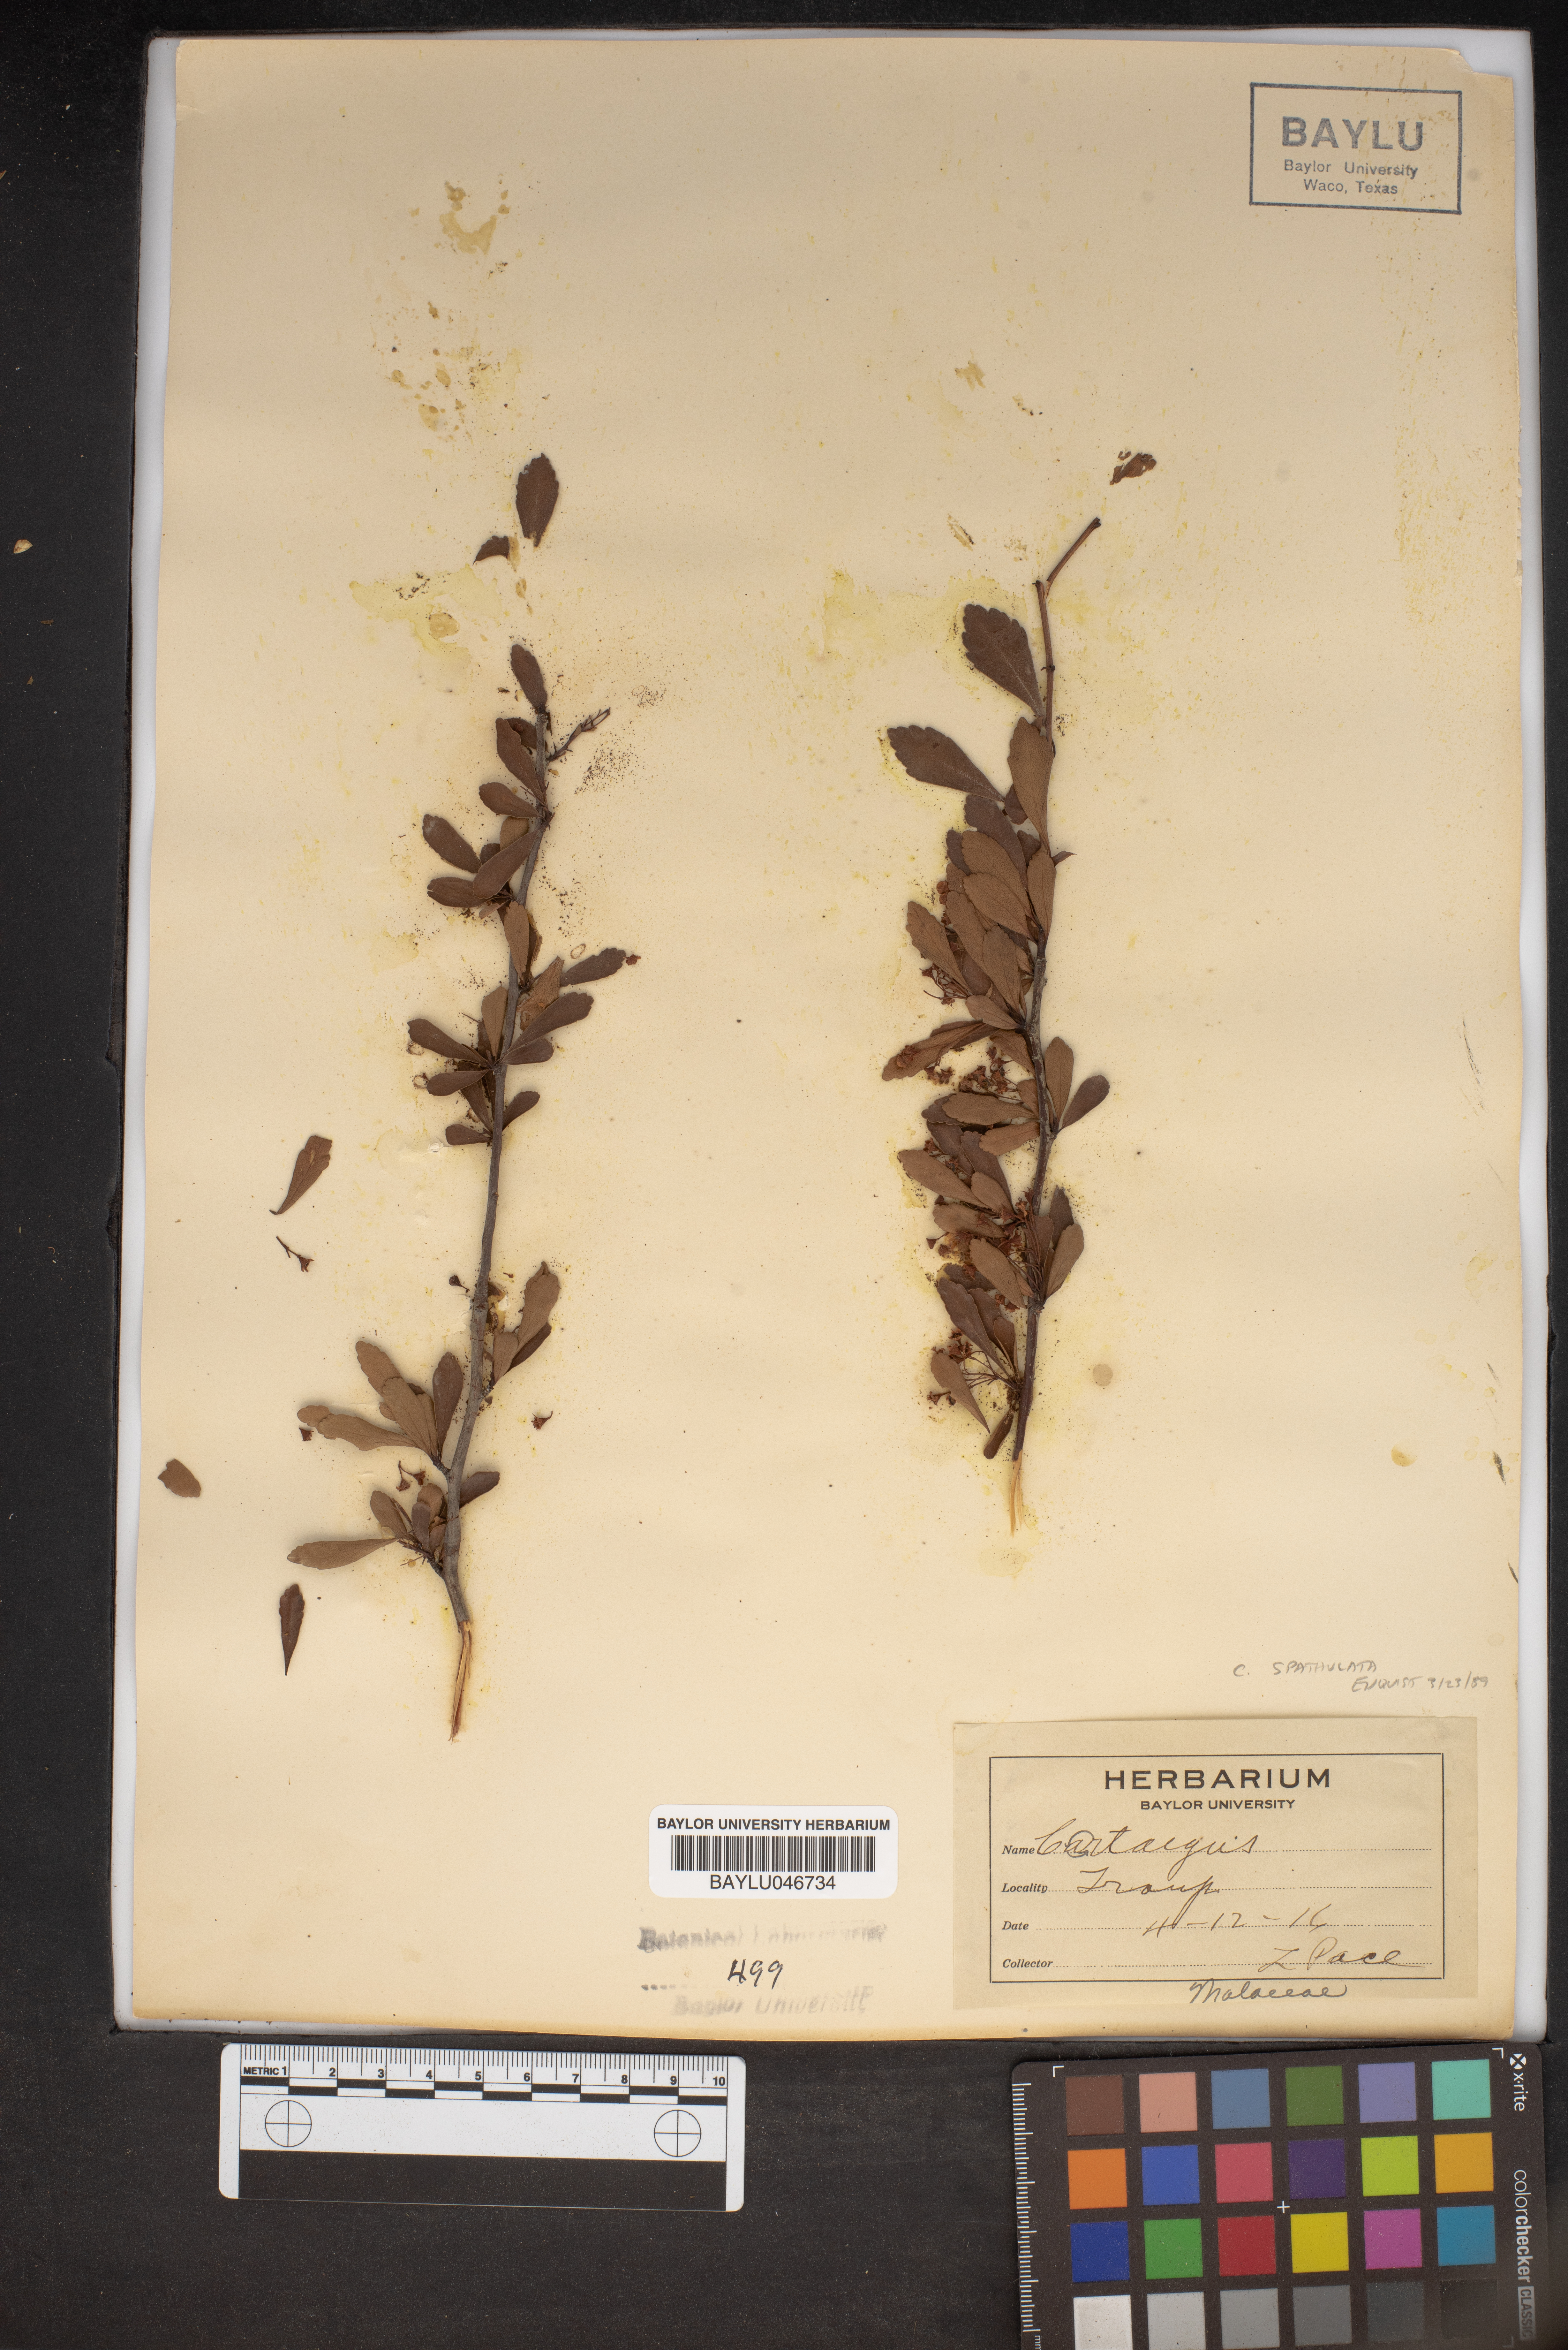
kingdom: Plantae
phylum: Tracheophyta
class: Magnoliopsida
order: Rosales
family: Rosaceae
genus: Crataegus
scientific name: Crataegus
